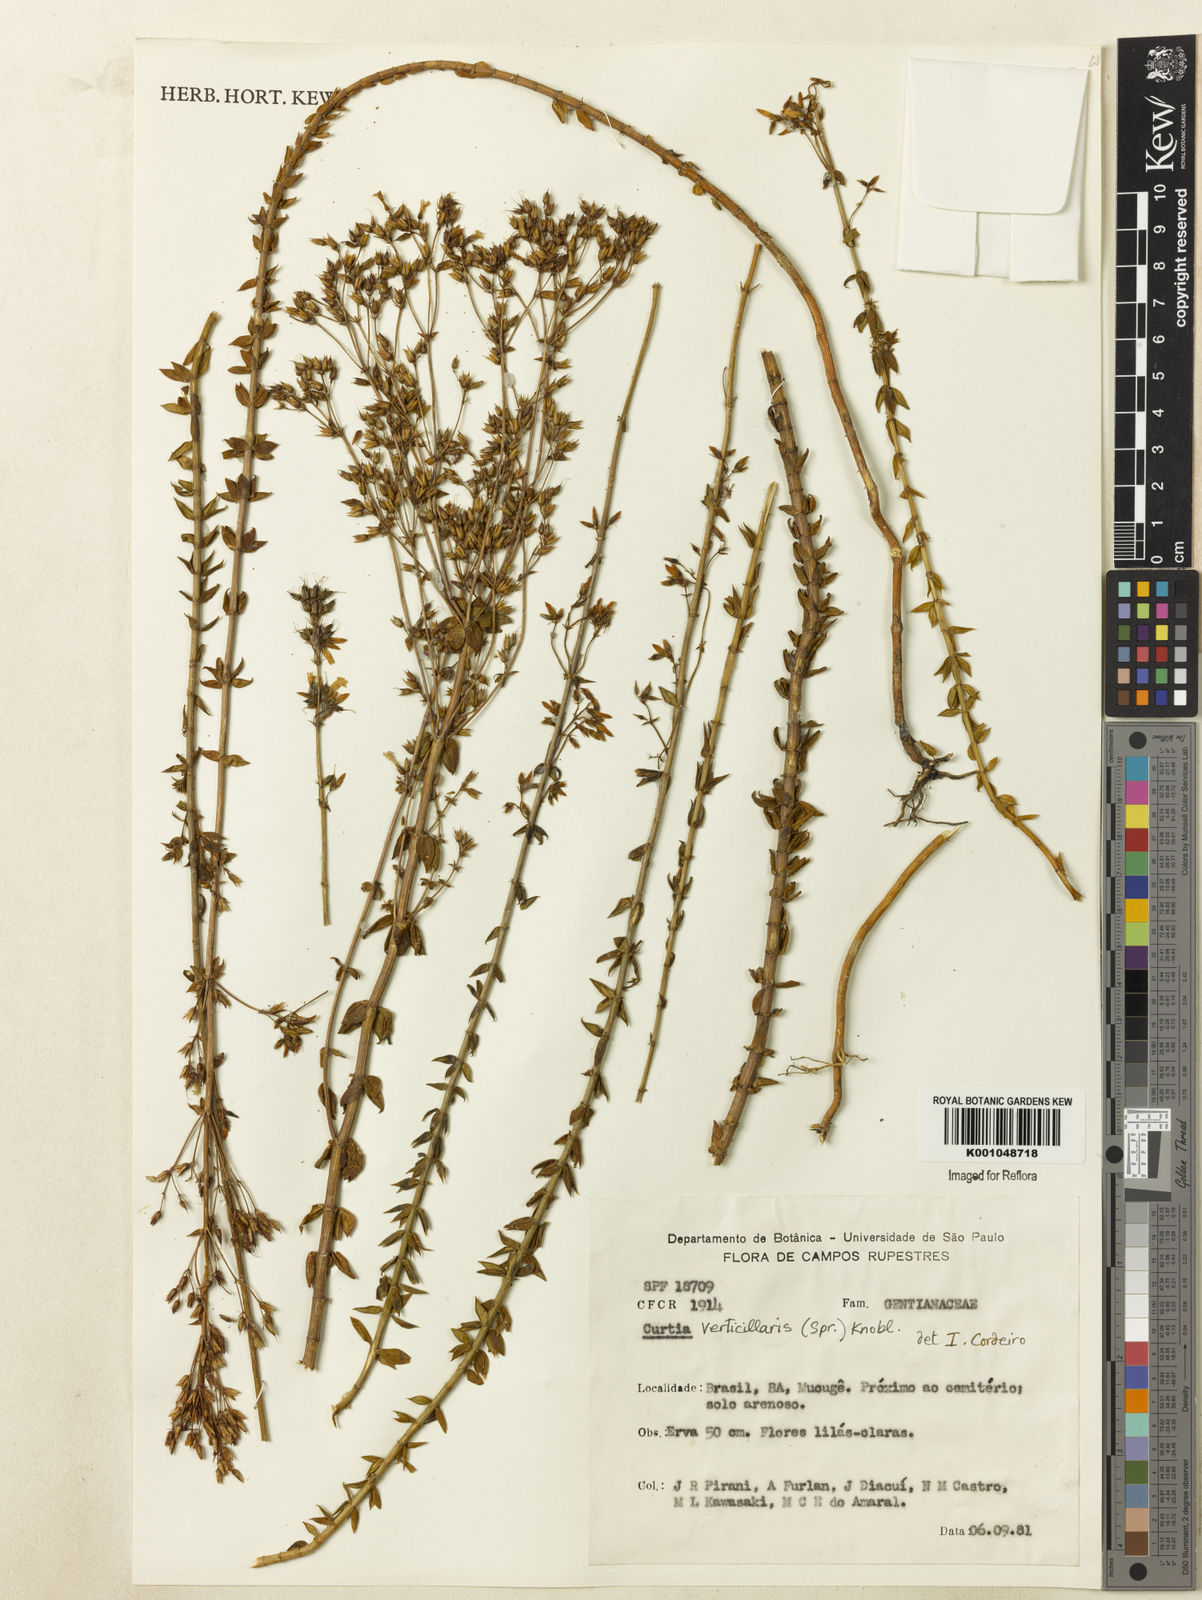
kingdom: Plantae
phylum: Tracheophyta
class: Magnoliopsida
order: Gentianales
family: Gentianaceae
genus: Curtia
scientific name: Curtia verticillaris
